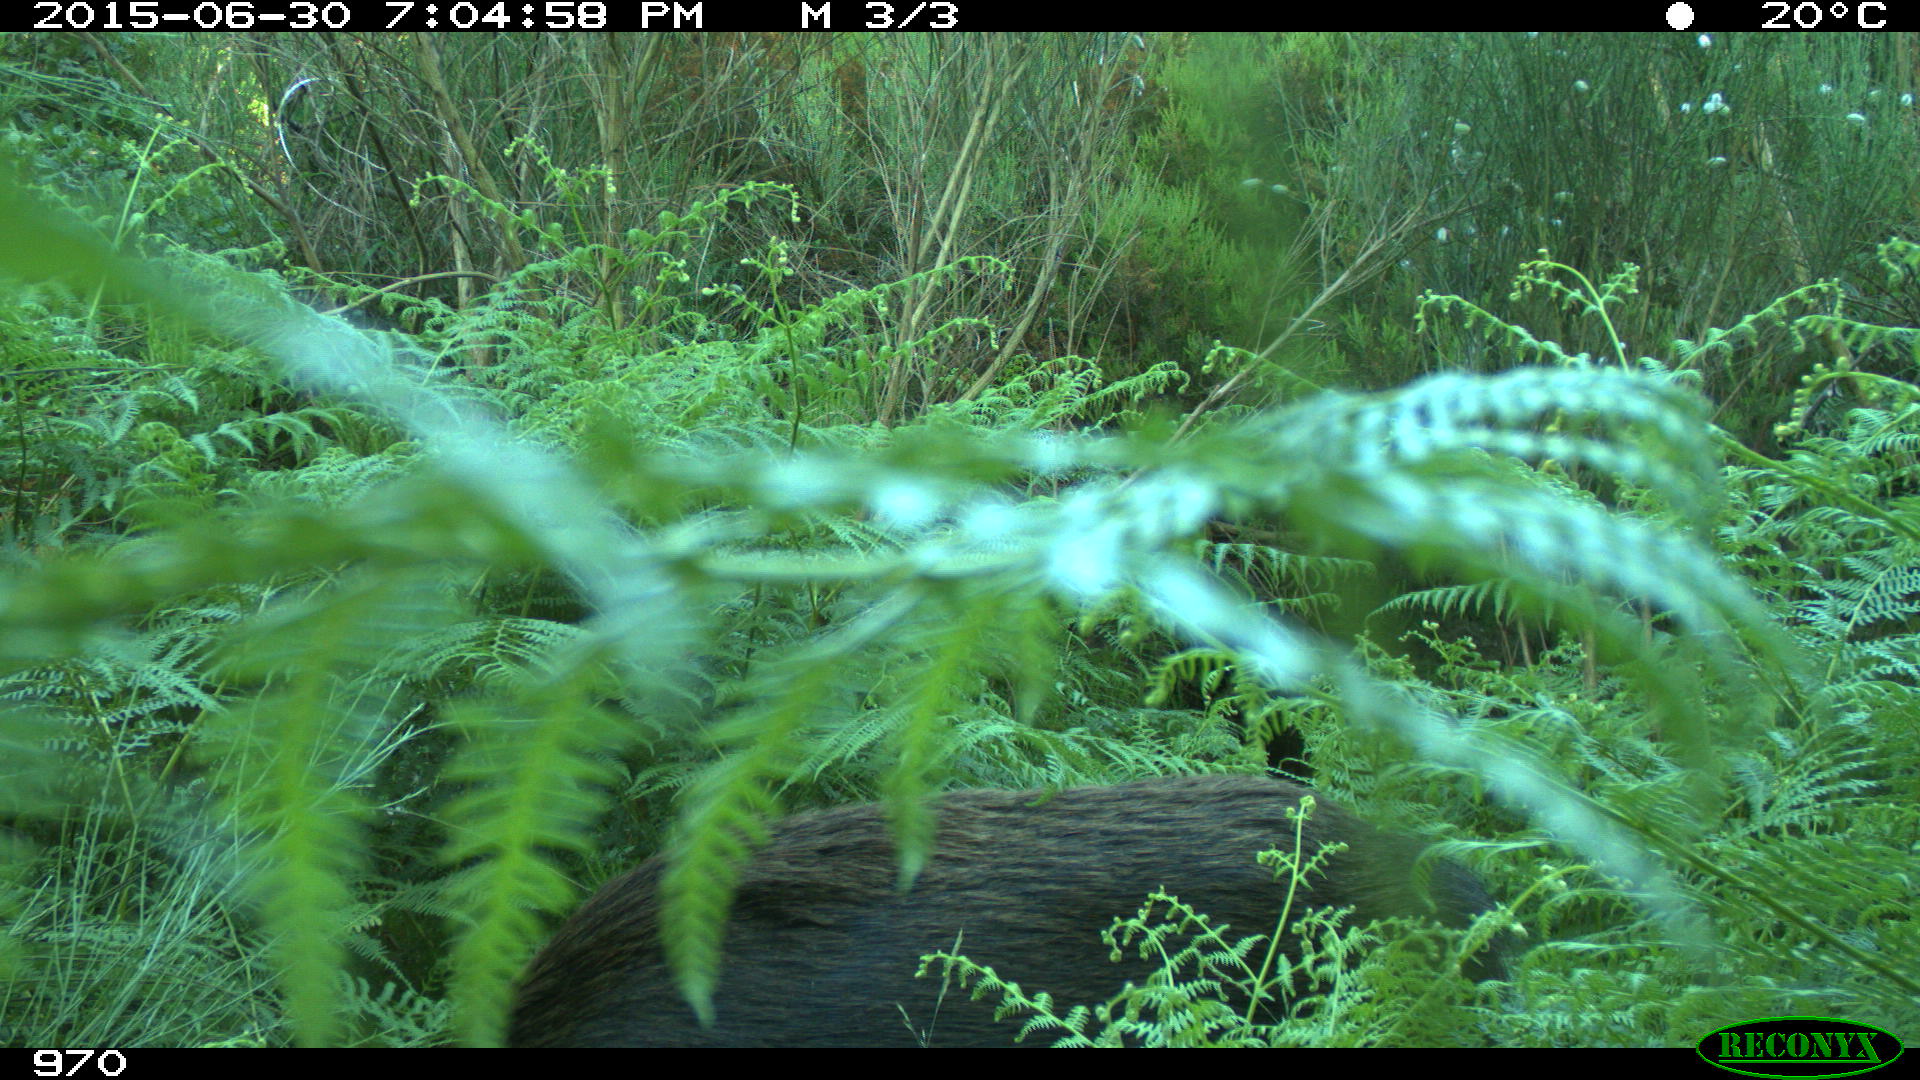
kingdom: Animalia
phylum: Chordata
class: Mammalia
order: Artiodactyla
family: Suidae
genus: Sus
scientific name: Sus scrofa
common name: Wild boar
